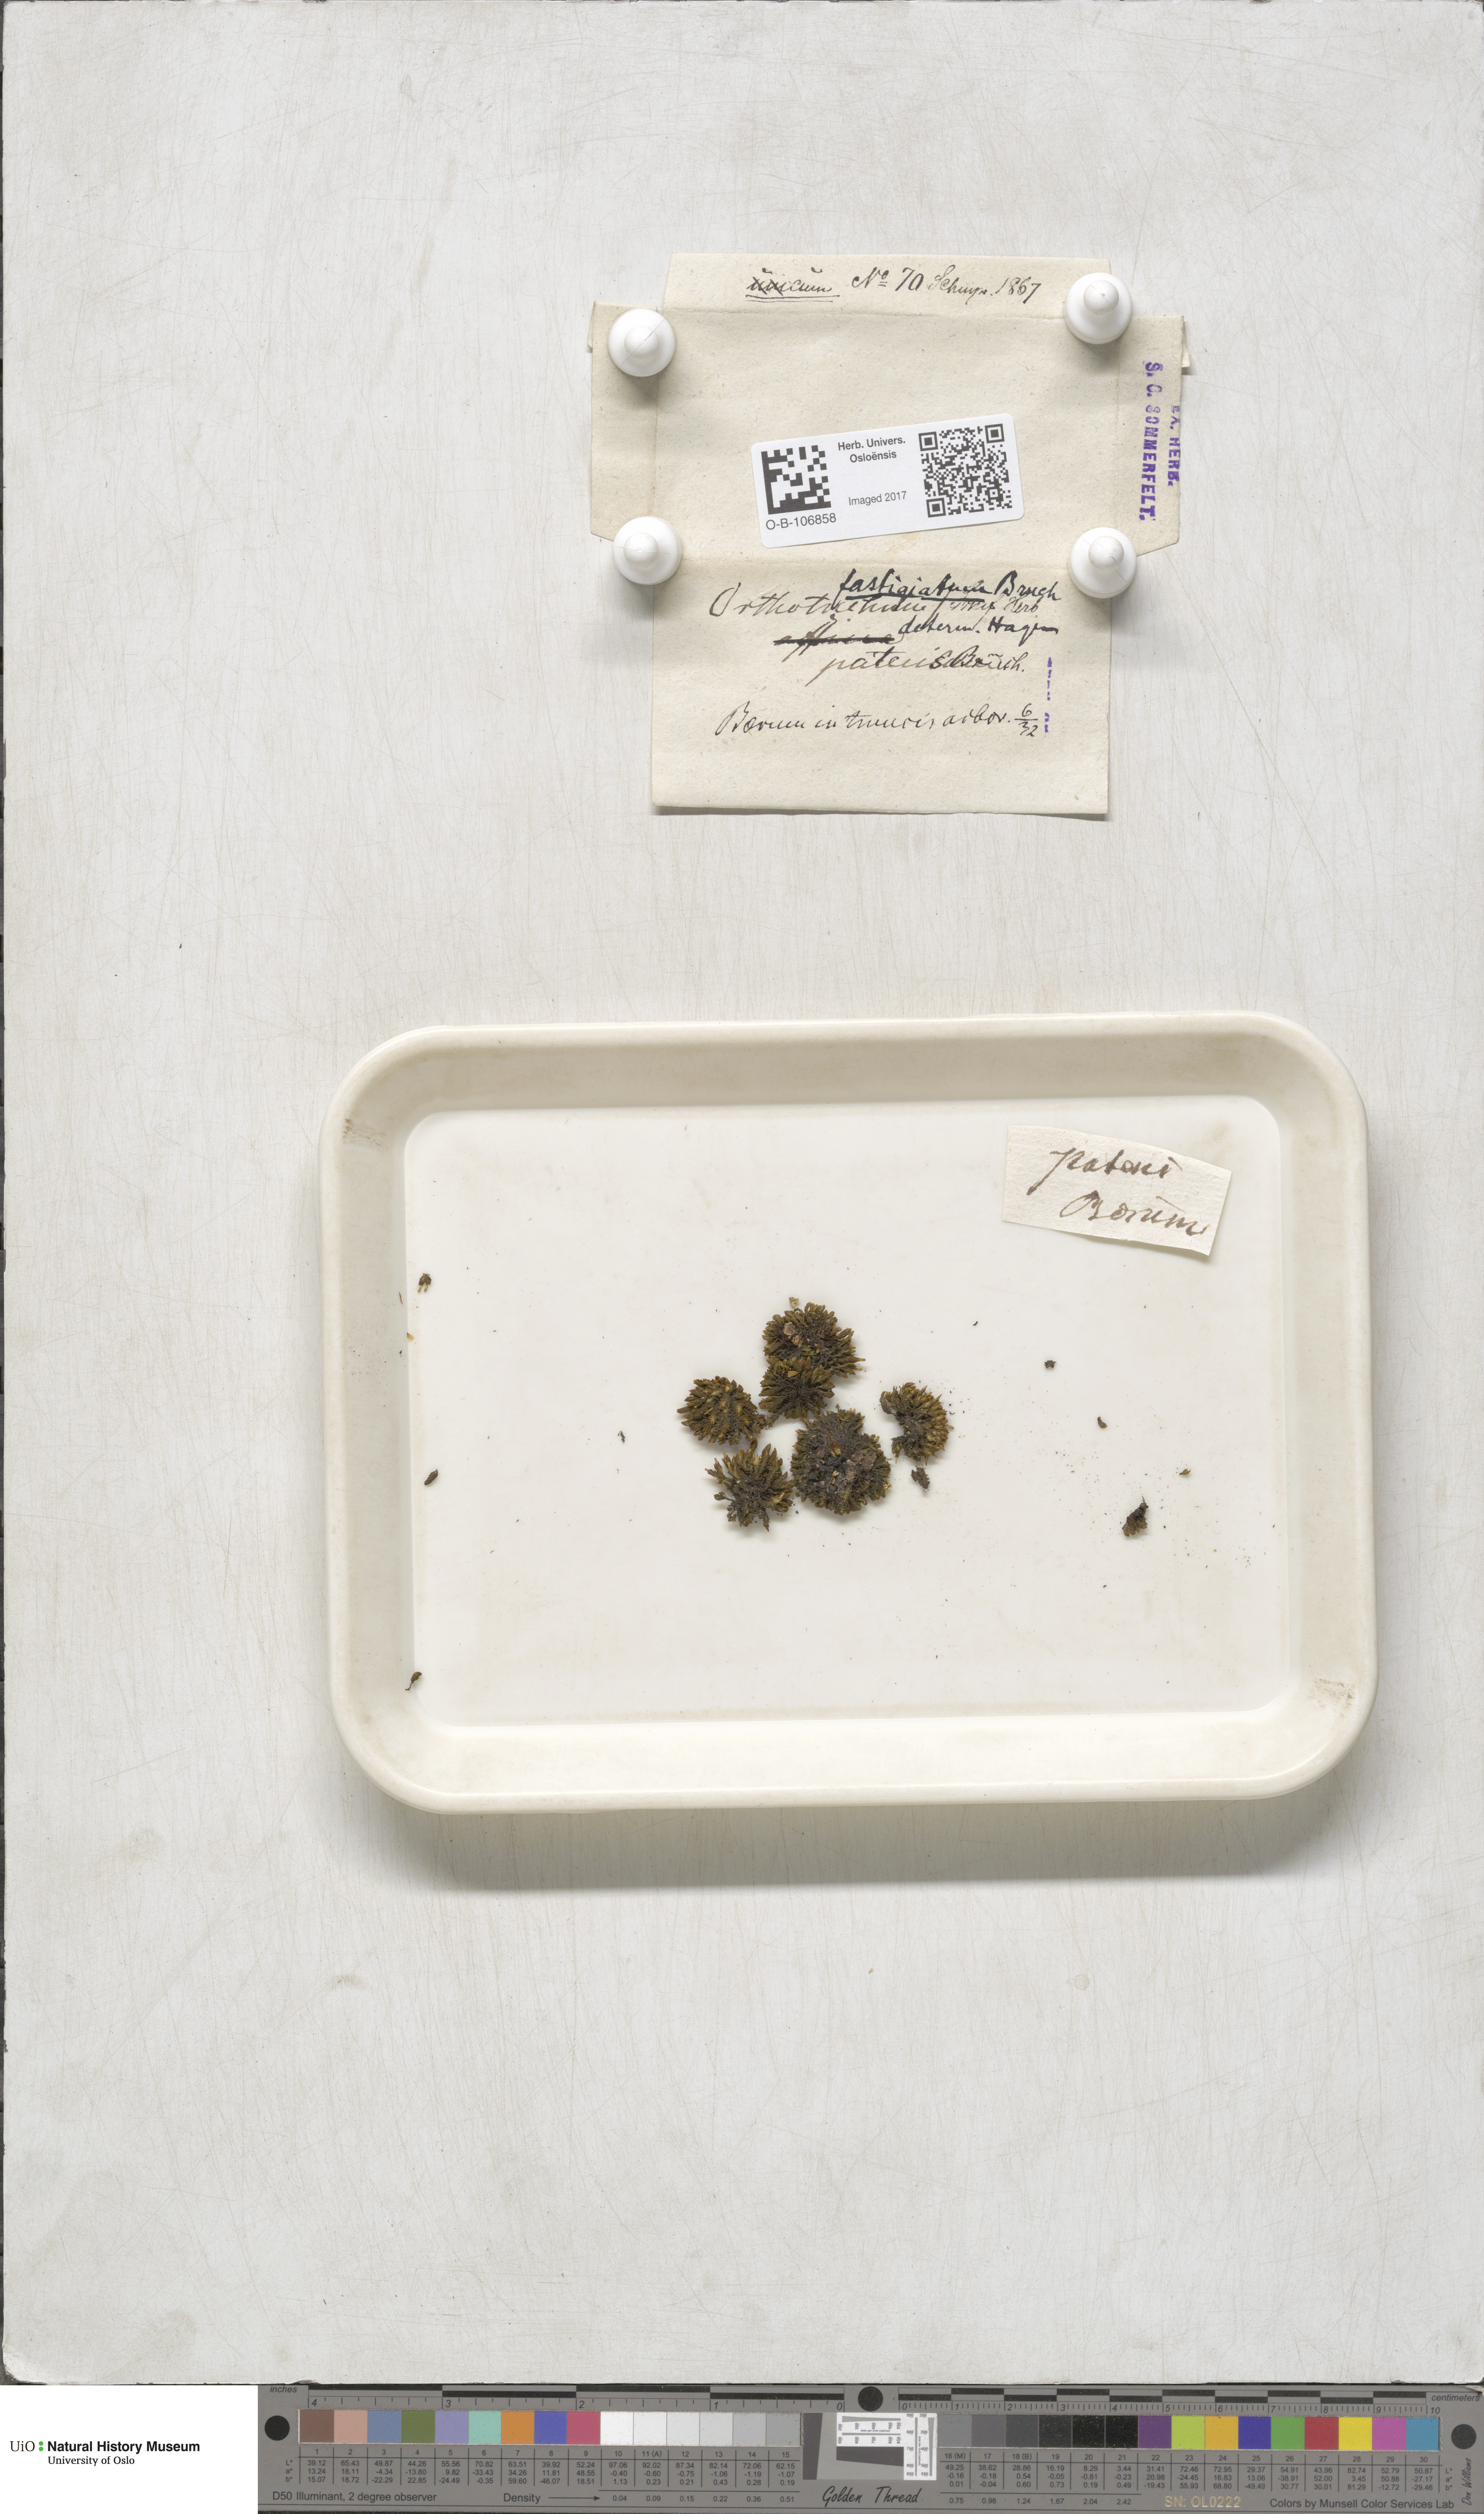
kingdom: Plantae
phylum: Bryophyta
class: Bryopsida
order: Orthotrichales
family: Orthotrichaceae
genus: Lewinskya
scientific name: Lewinskya affinis
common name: Wood bristle-moss
